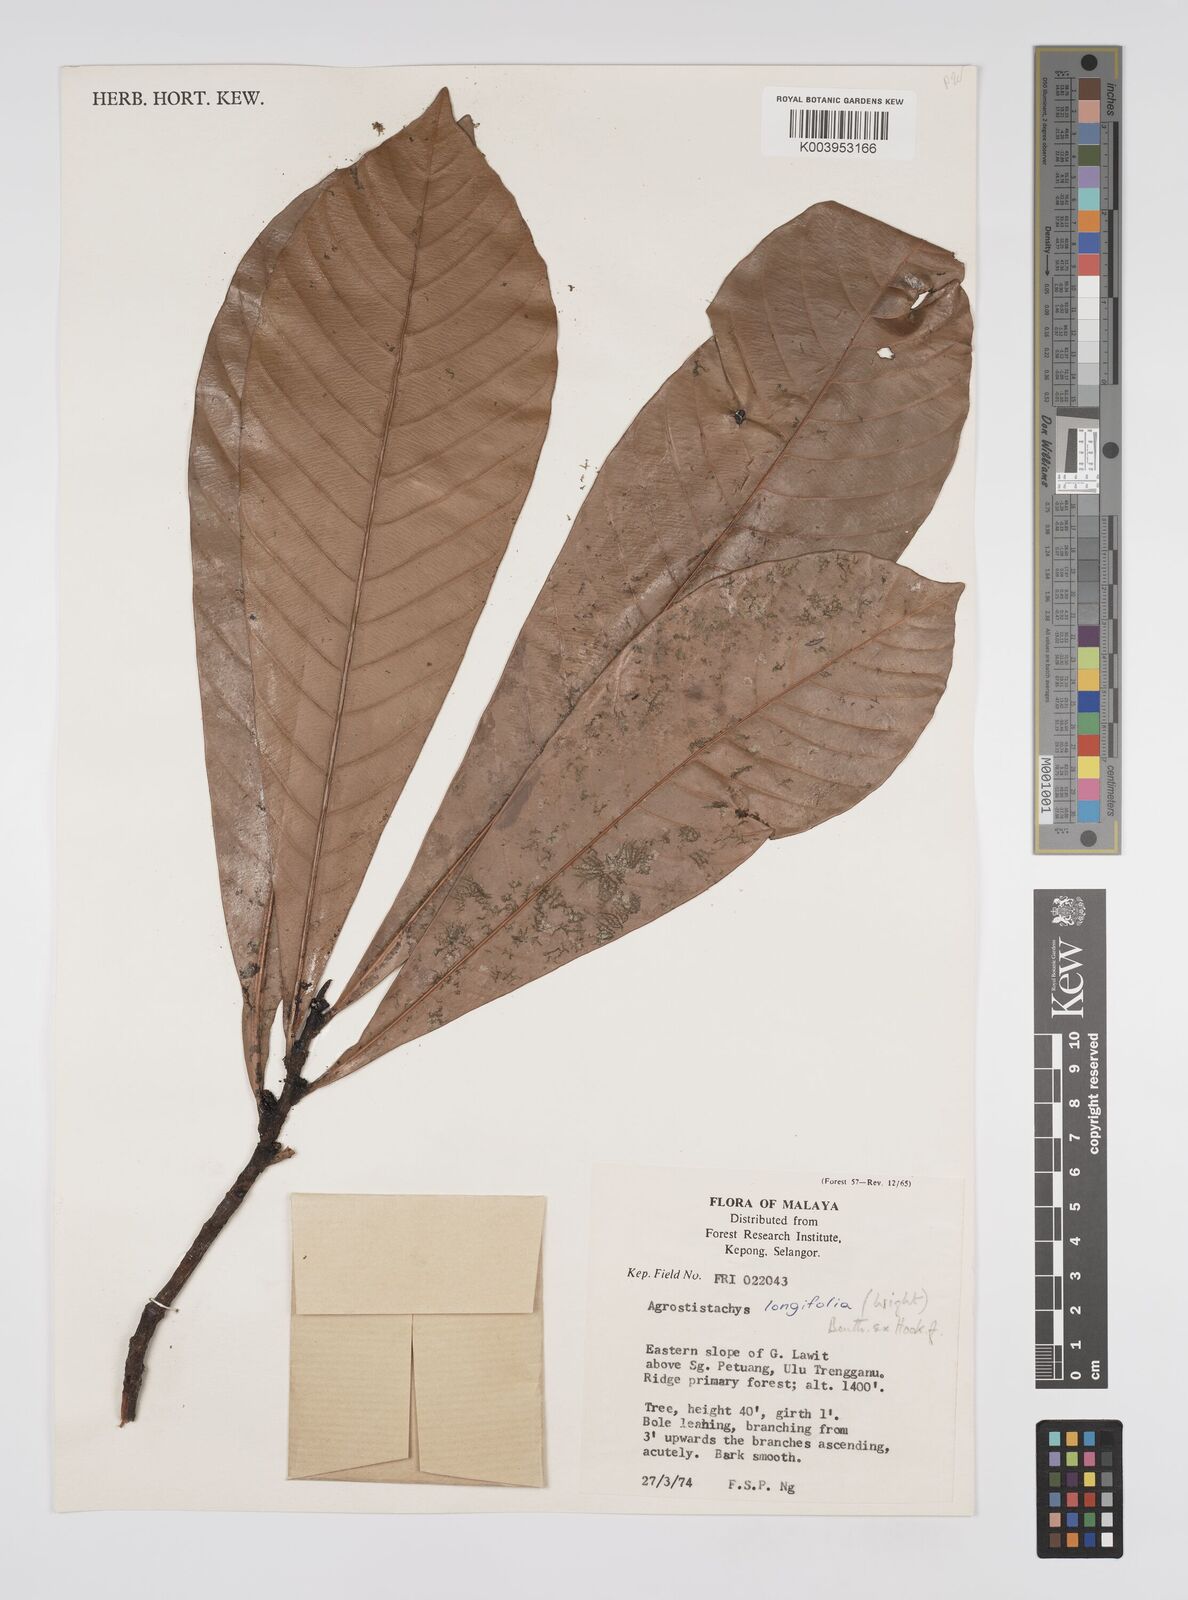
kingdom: Plantae
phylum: Tracheophyta
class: Magnoliopsida
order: Malpighiales
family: Euphorbiaceae
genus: Agrostistachys
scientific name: Agrostistachys borneensis
